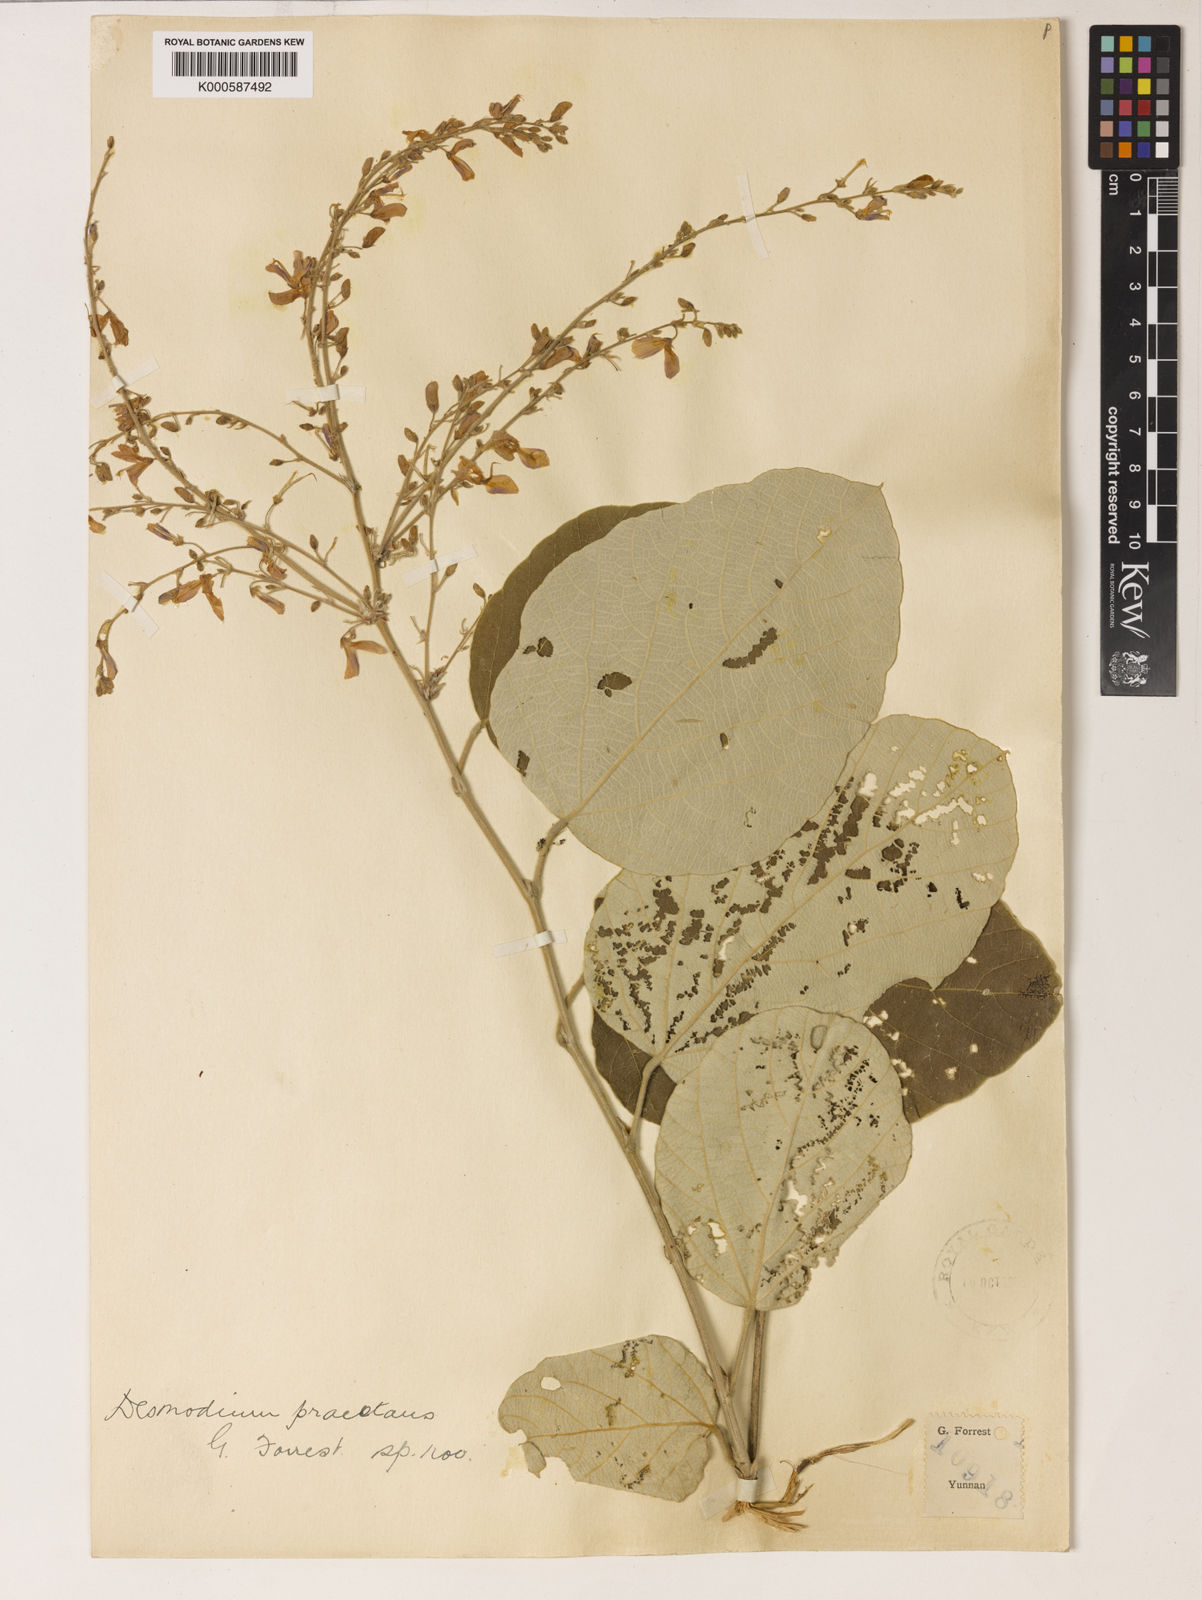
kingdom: Plantae
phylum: Tracheophyta
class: Magnoliopsida
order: Fabales
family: Fabaceae
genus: Sunhangia
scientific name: Sunhangia yunnanensis
